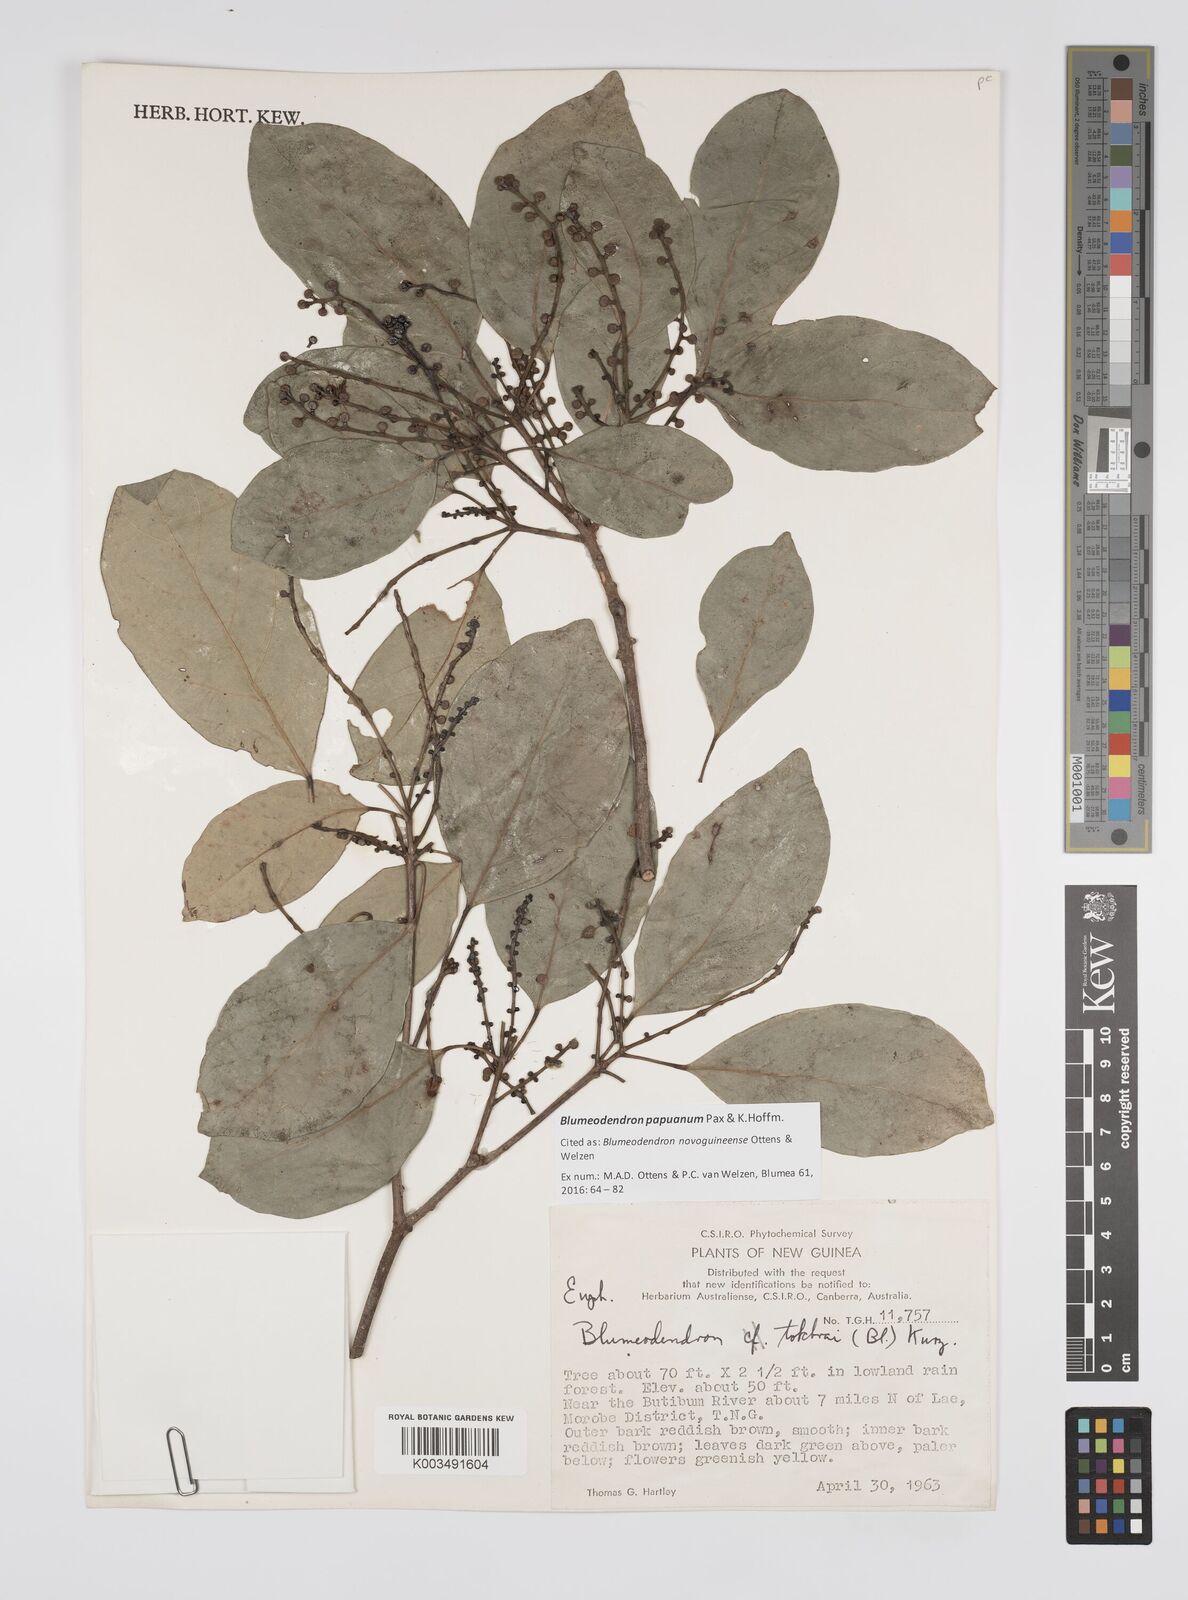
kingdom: Plantae
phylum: Tracheophyta
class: Magnoliopsida
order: Malpighiales
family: Euphorbiaceae
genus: Blumeodendron
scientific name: Blumeodendron papuanum
